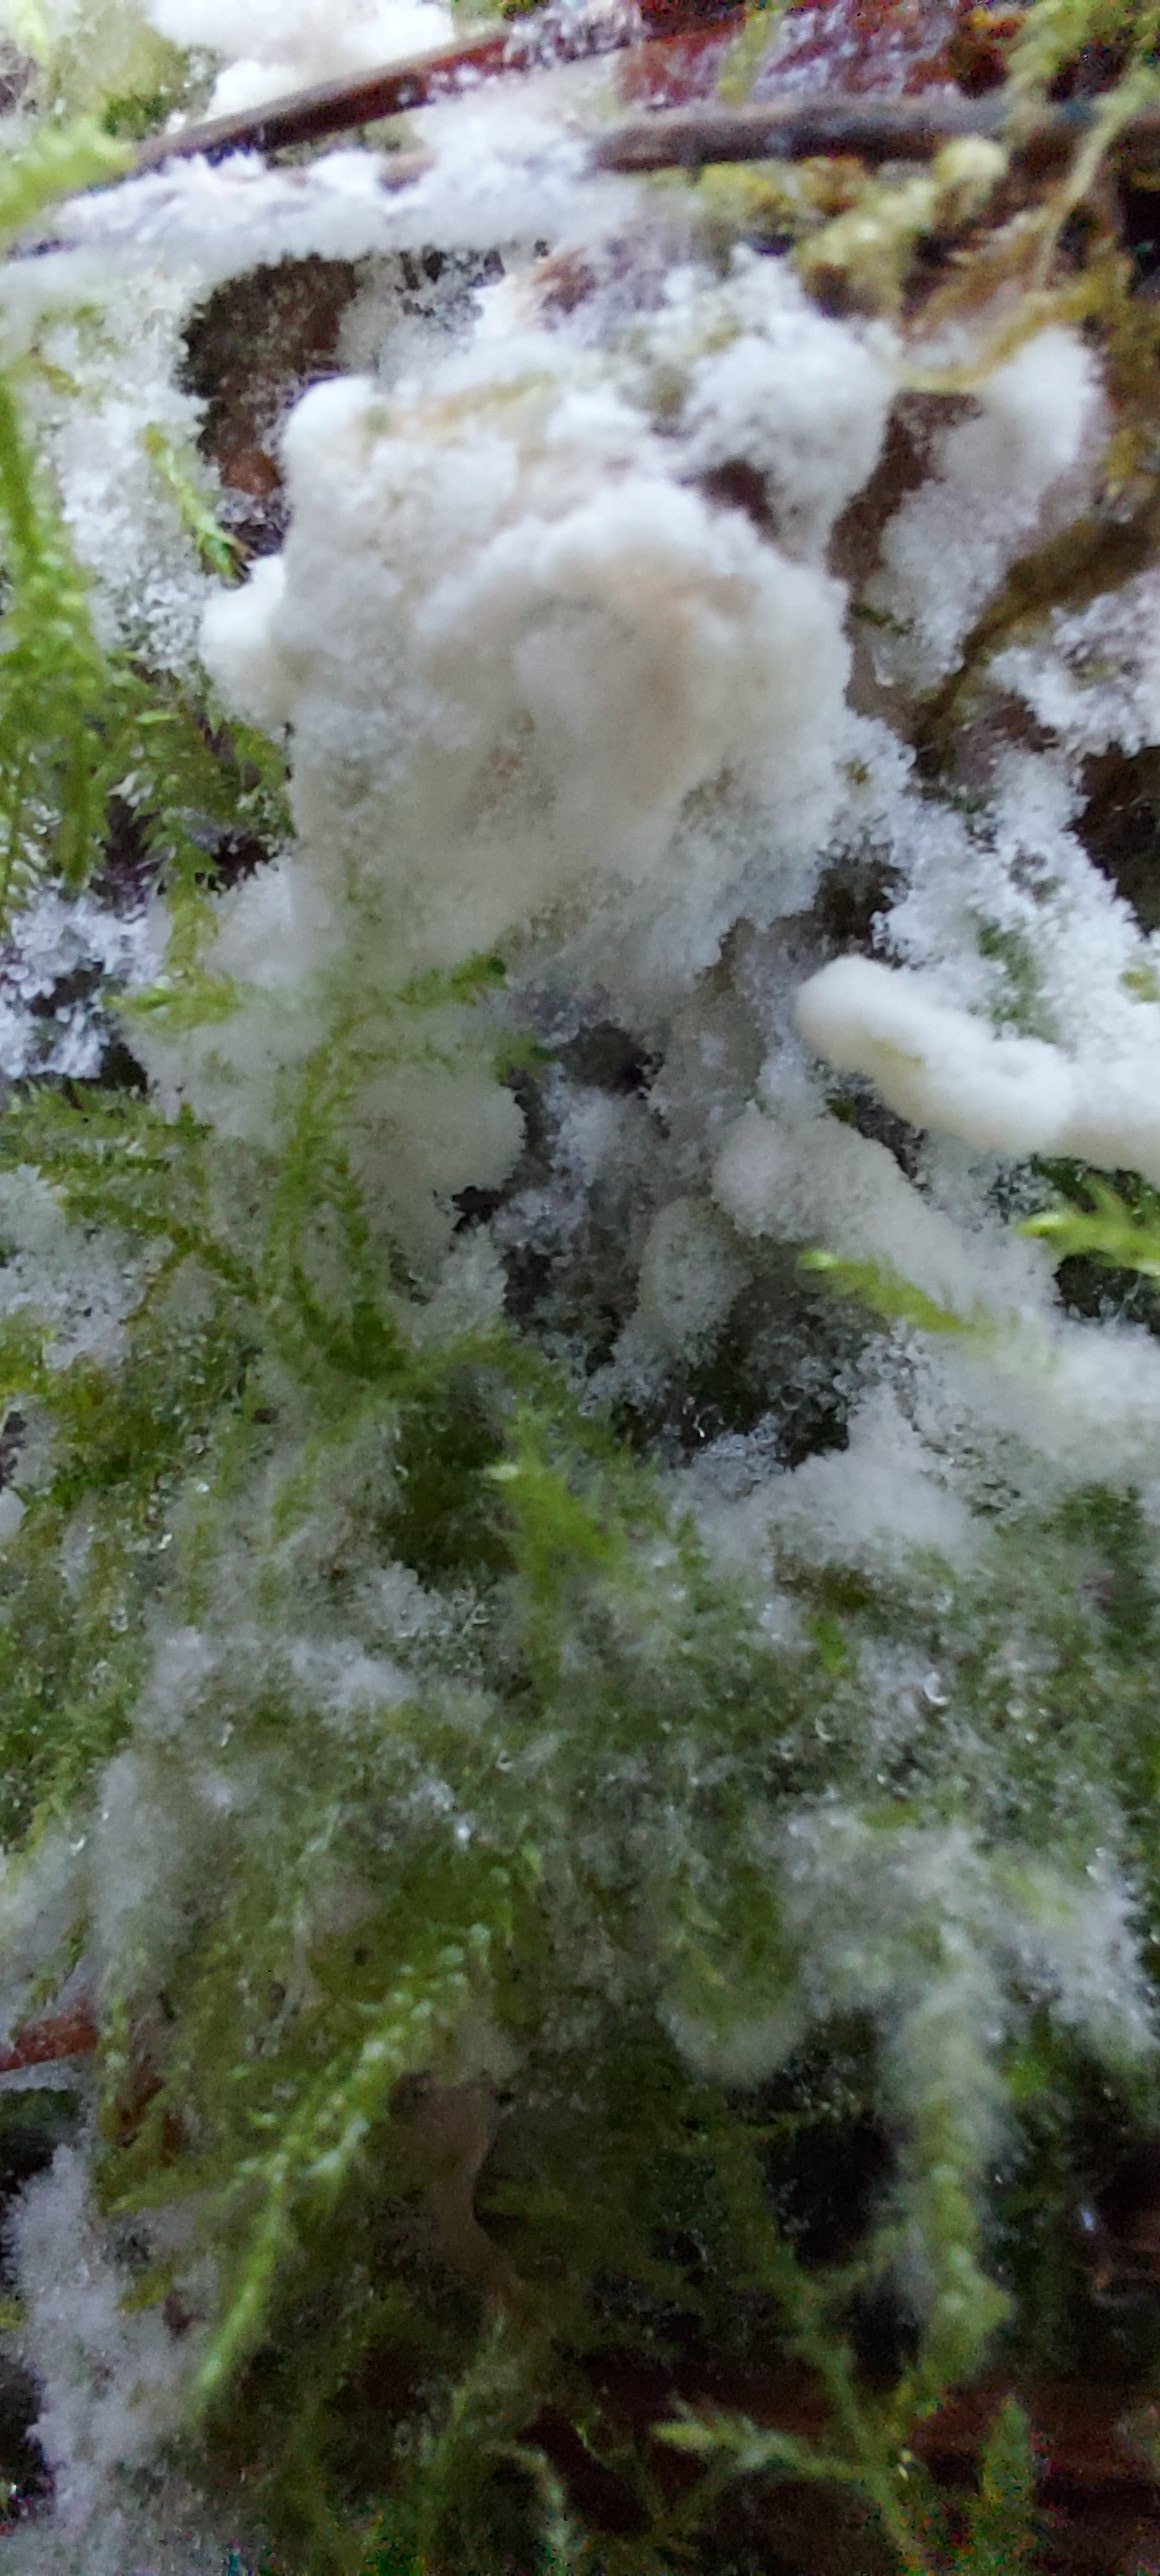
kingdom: Fungi
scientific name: Fungi
